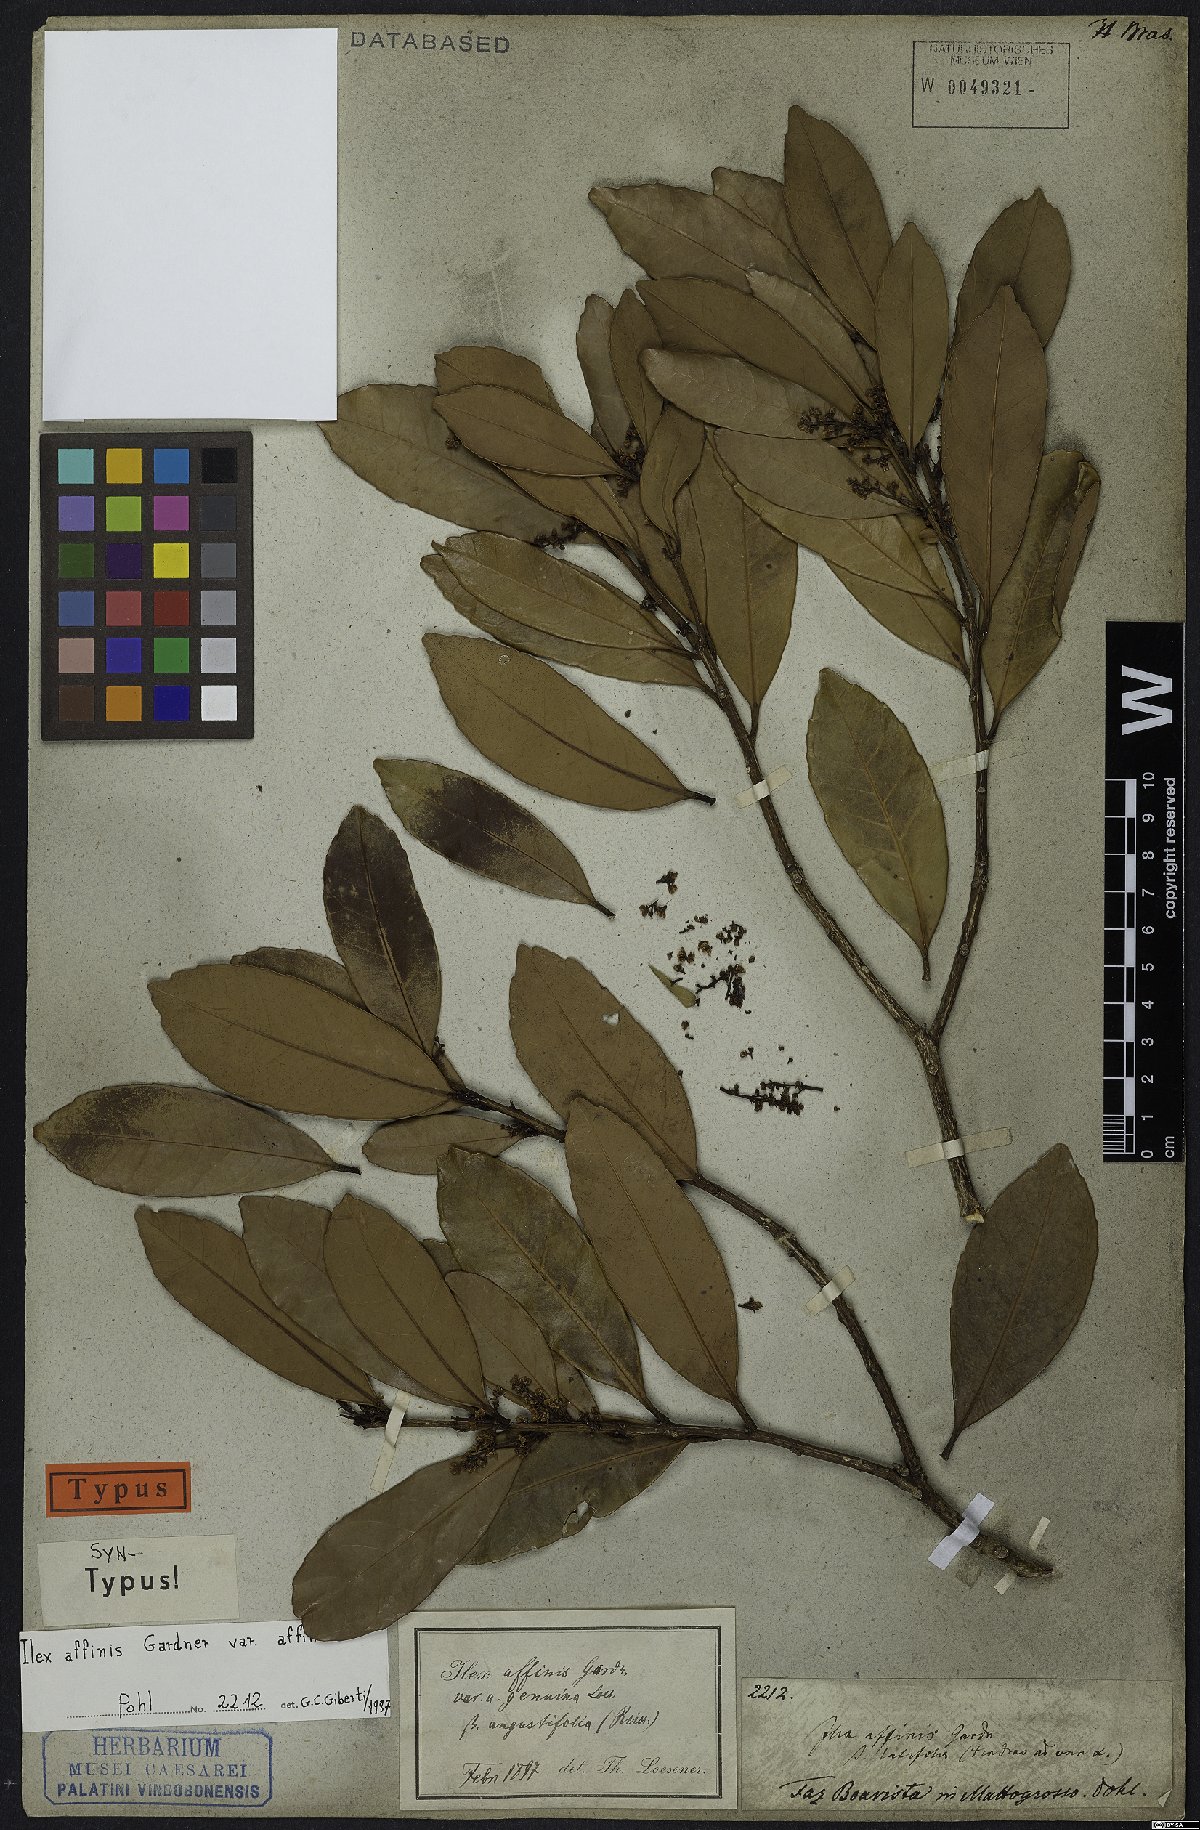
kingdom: Plantae
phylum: Tracheophyta
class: Magnoliopsida
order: Aquifoliales
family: Aquifoliaceae
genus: Ilex
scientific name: Ilex affinis
